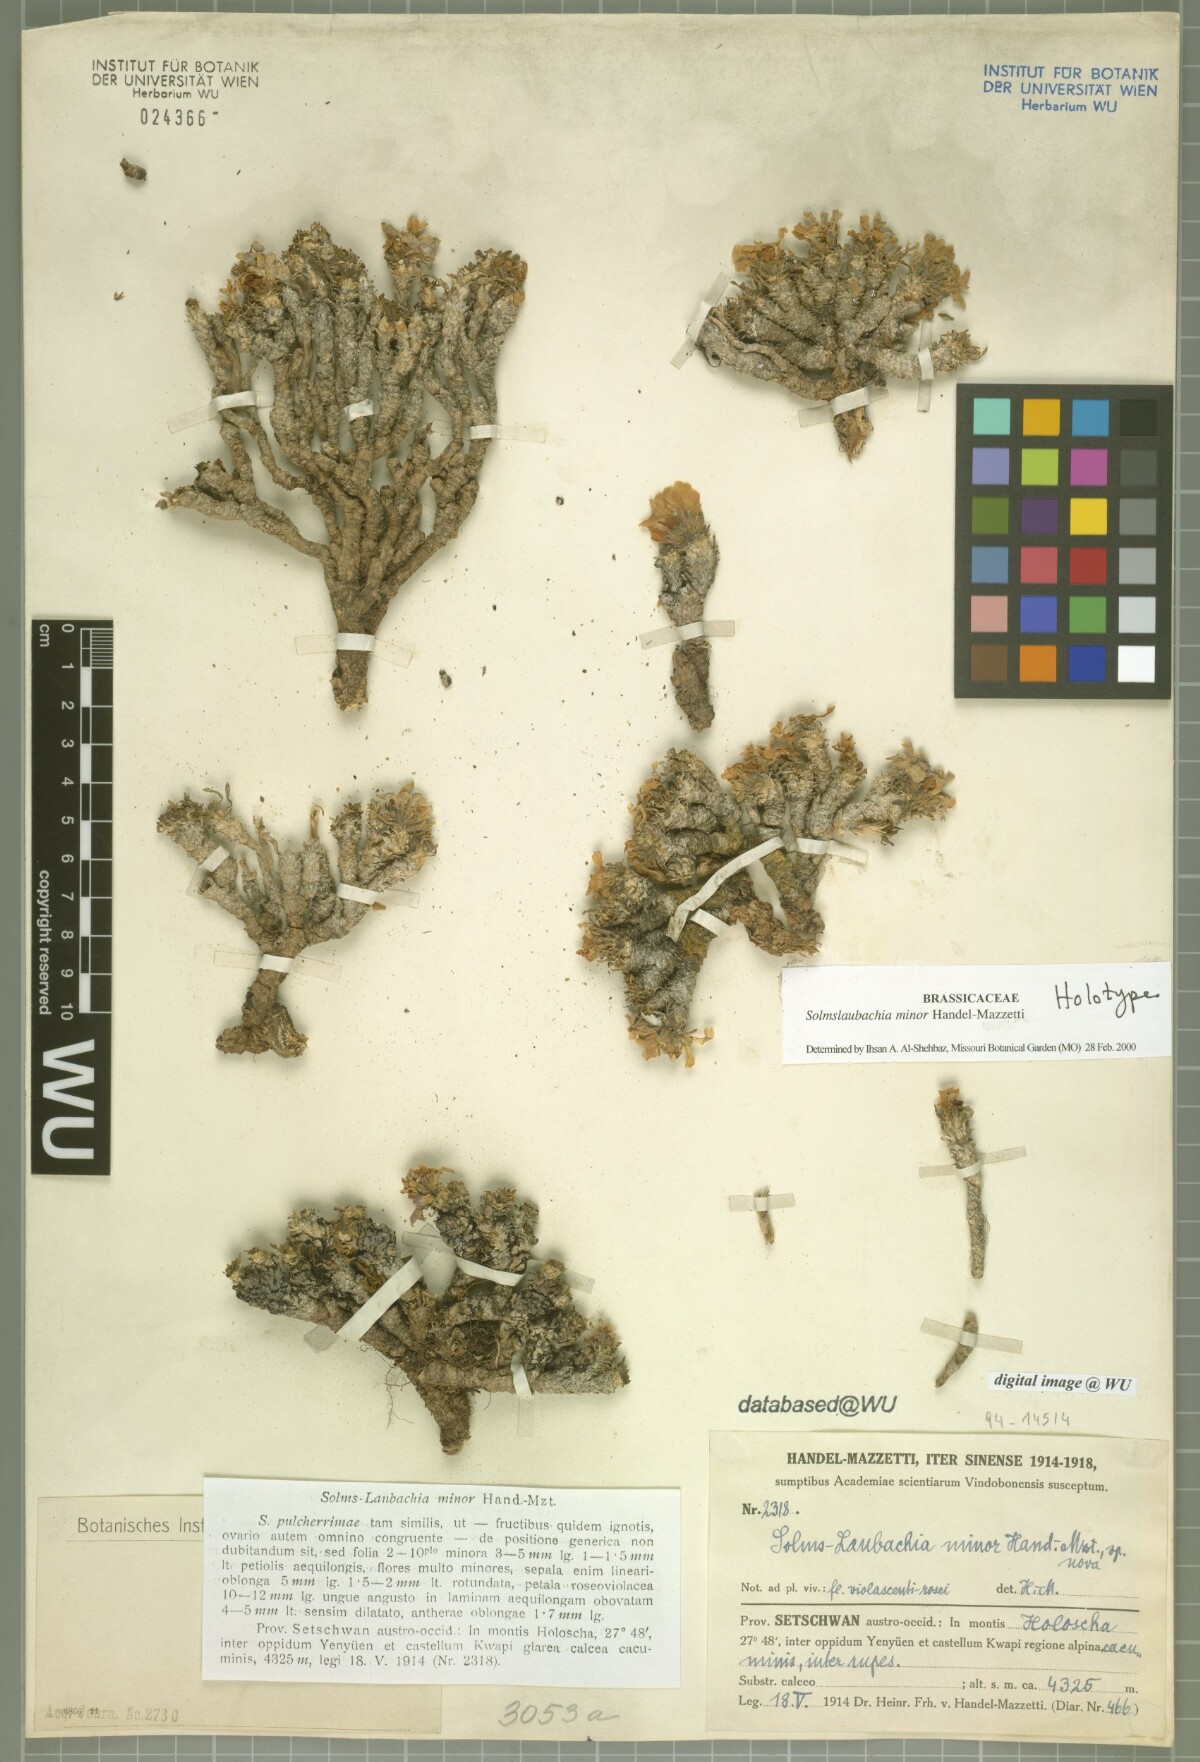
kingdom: Plantae
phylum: Tracheophyta
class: Magnoliopsida
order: Brassicales
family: Brassicaceae
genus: Solms-laubachia
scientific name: Solms-laubachia minor
